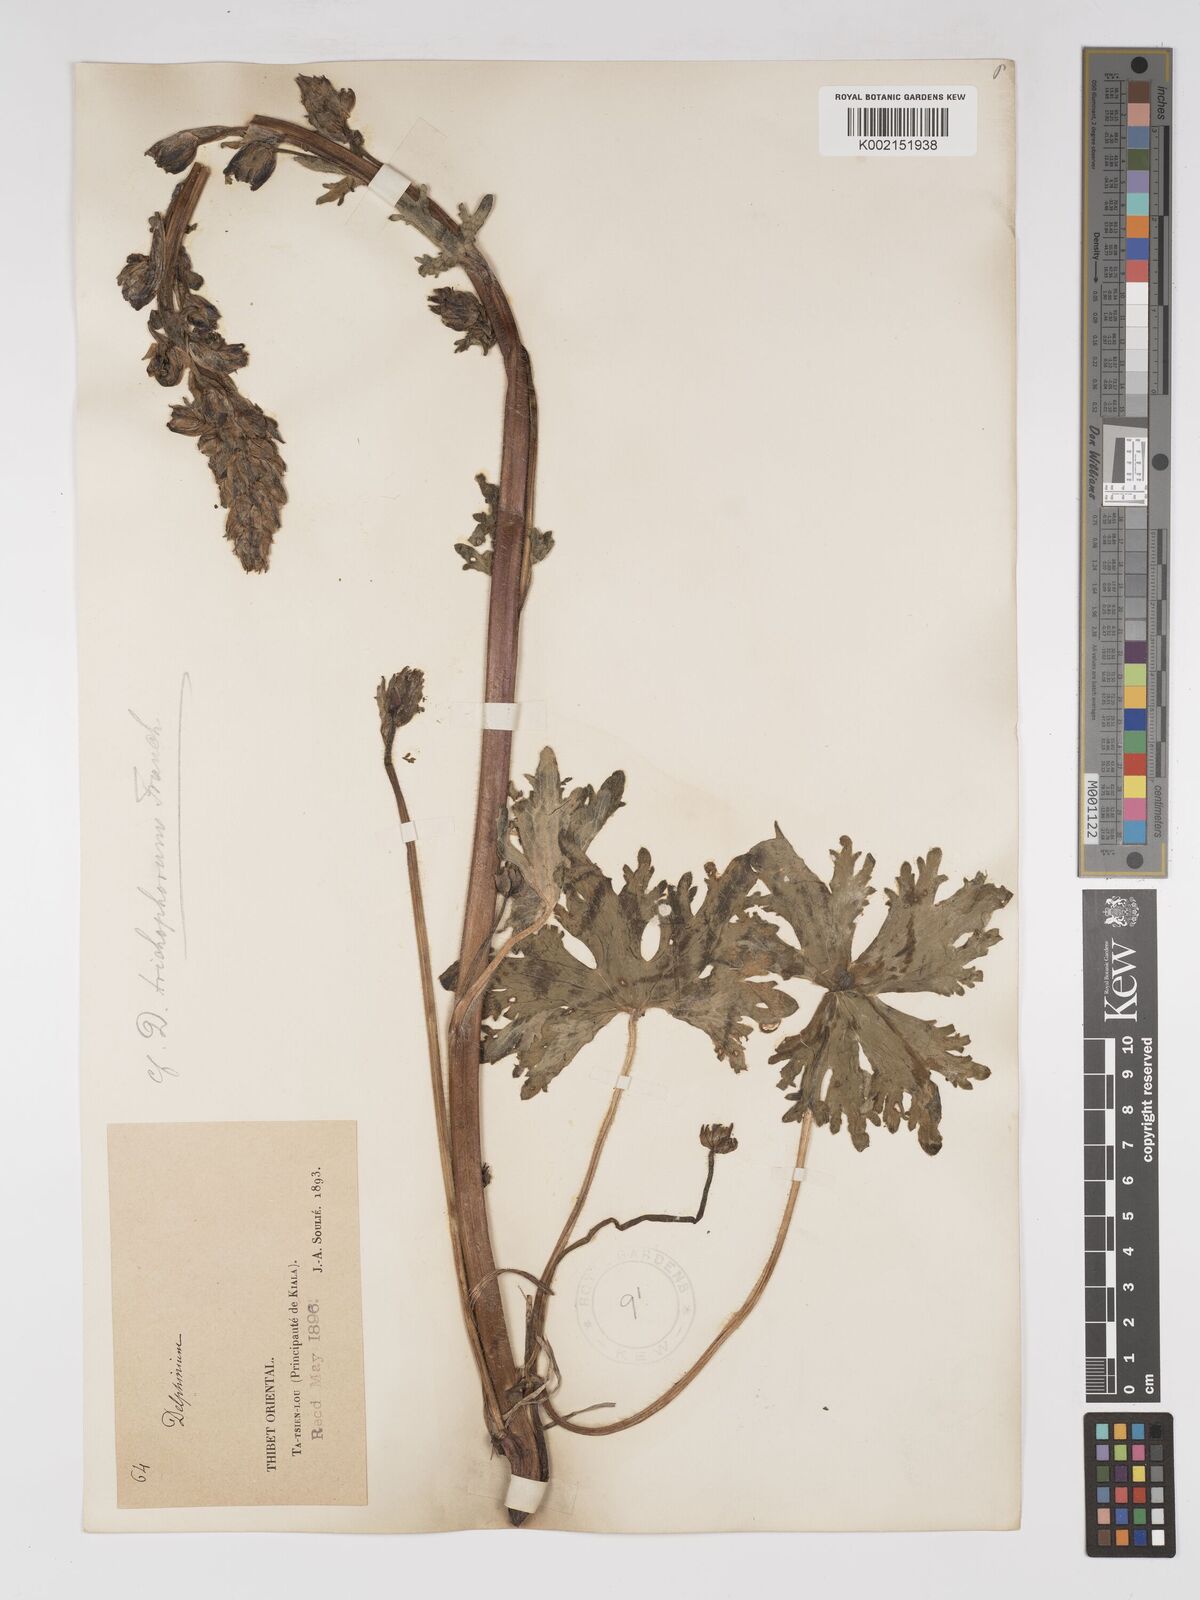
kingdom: Plantae
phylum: Tracheophyta
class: Magnoliopsida
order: Ranunculales
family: Ranunculaceae
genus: Delphinium
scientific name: Delphinium trichophorum
